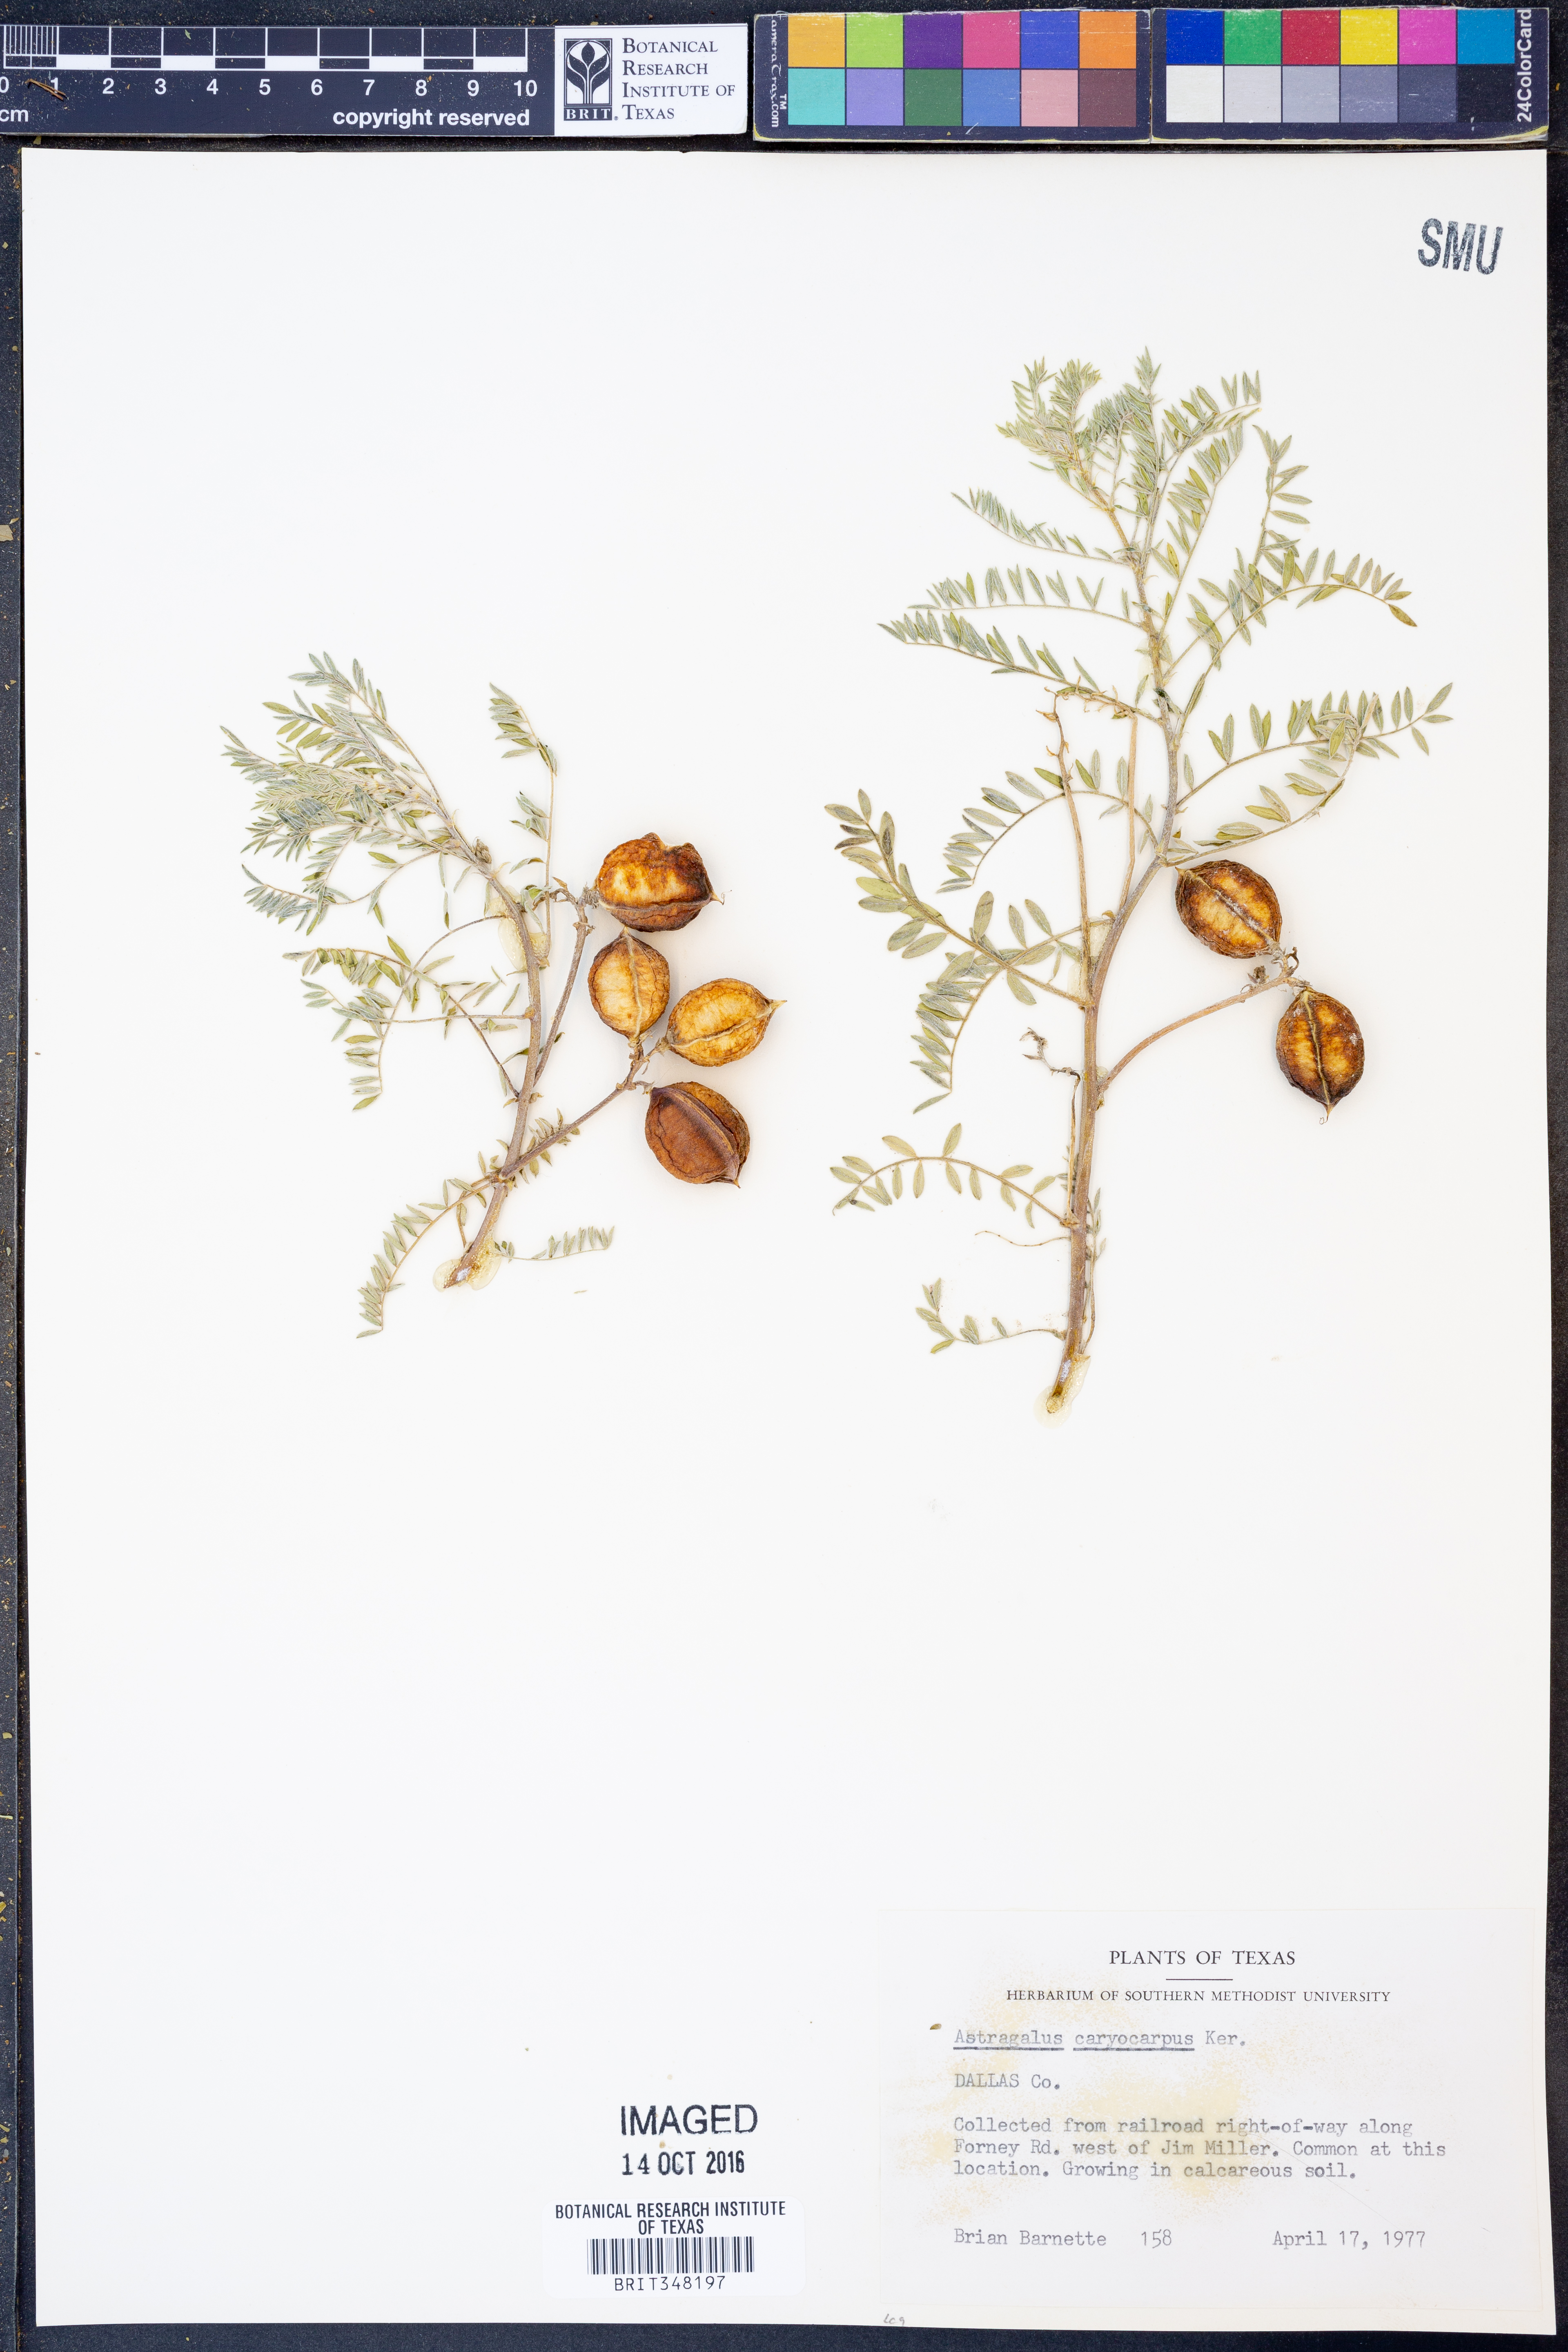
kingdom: Plantae
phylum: Tracheophyta
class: Magnoliopsida
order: Fabales
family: Fabaceae
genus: Astragalus
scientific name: Astragalus crassicarpus
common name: Ground-plum milk-vetch
